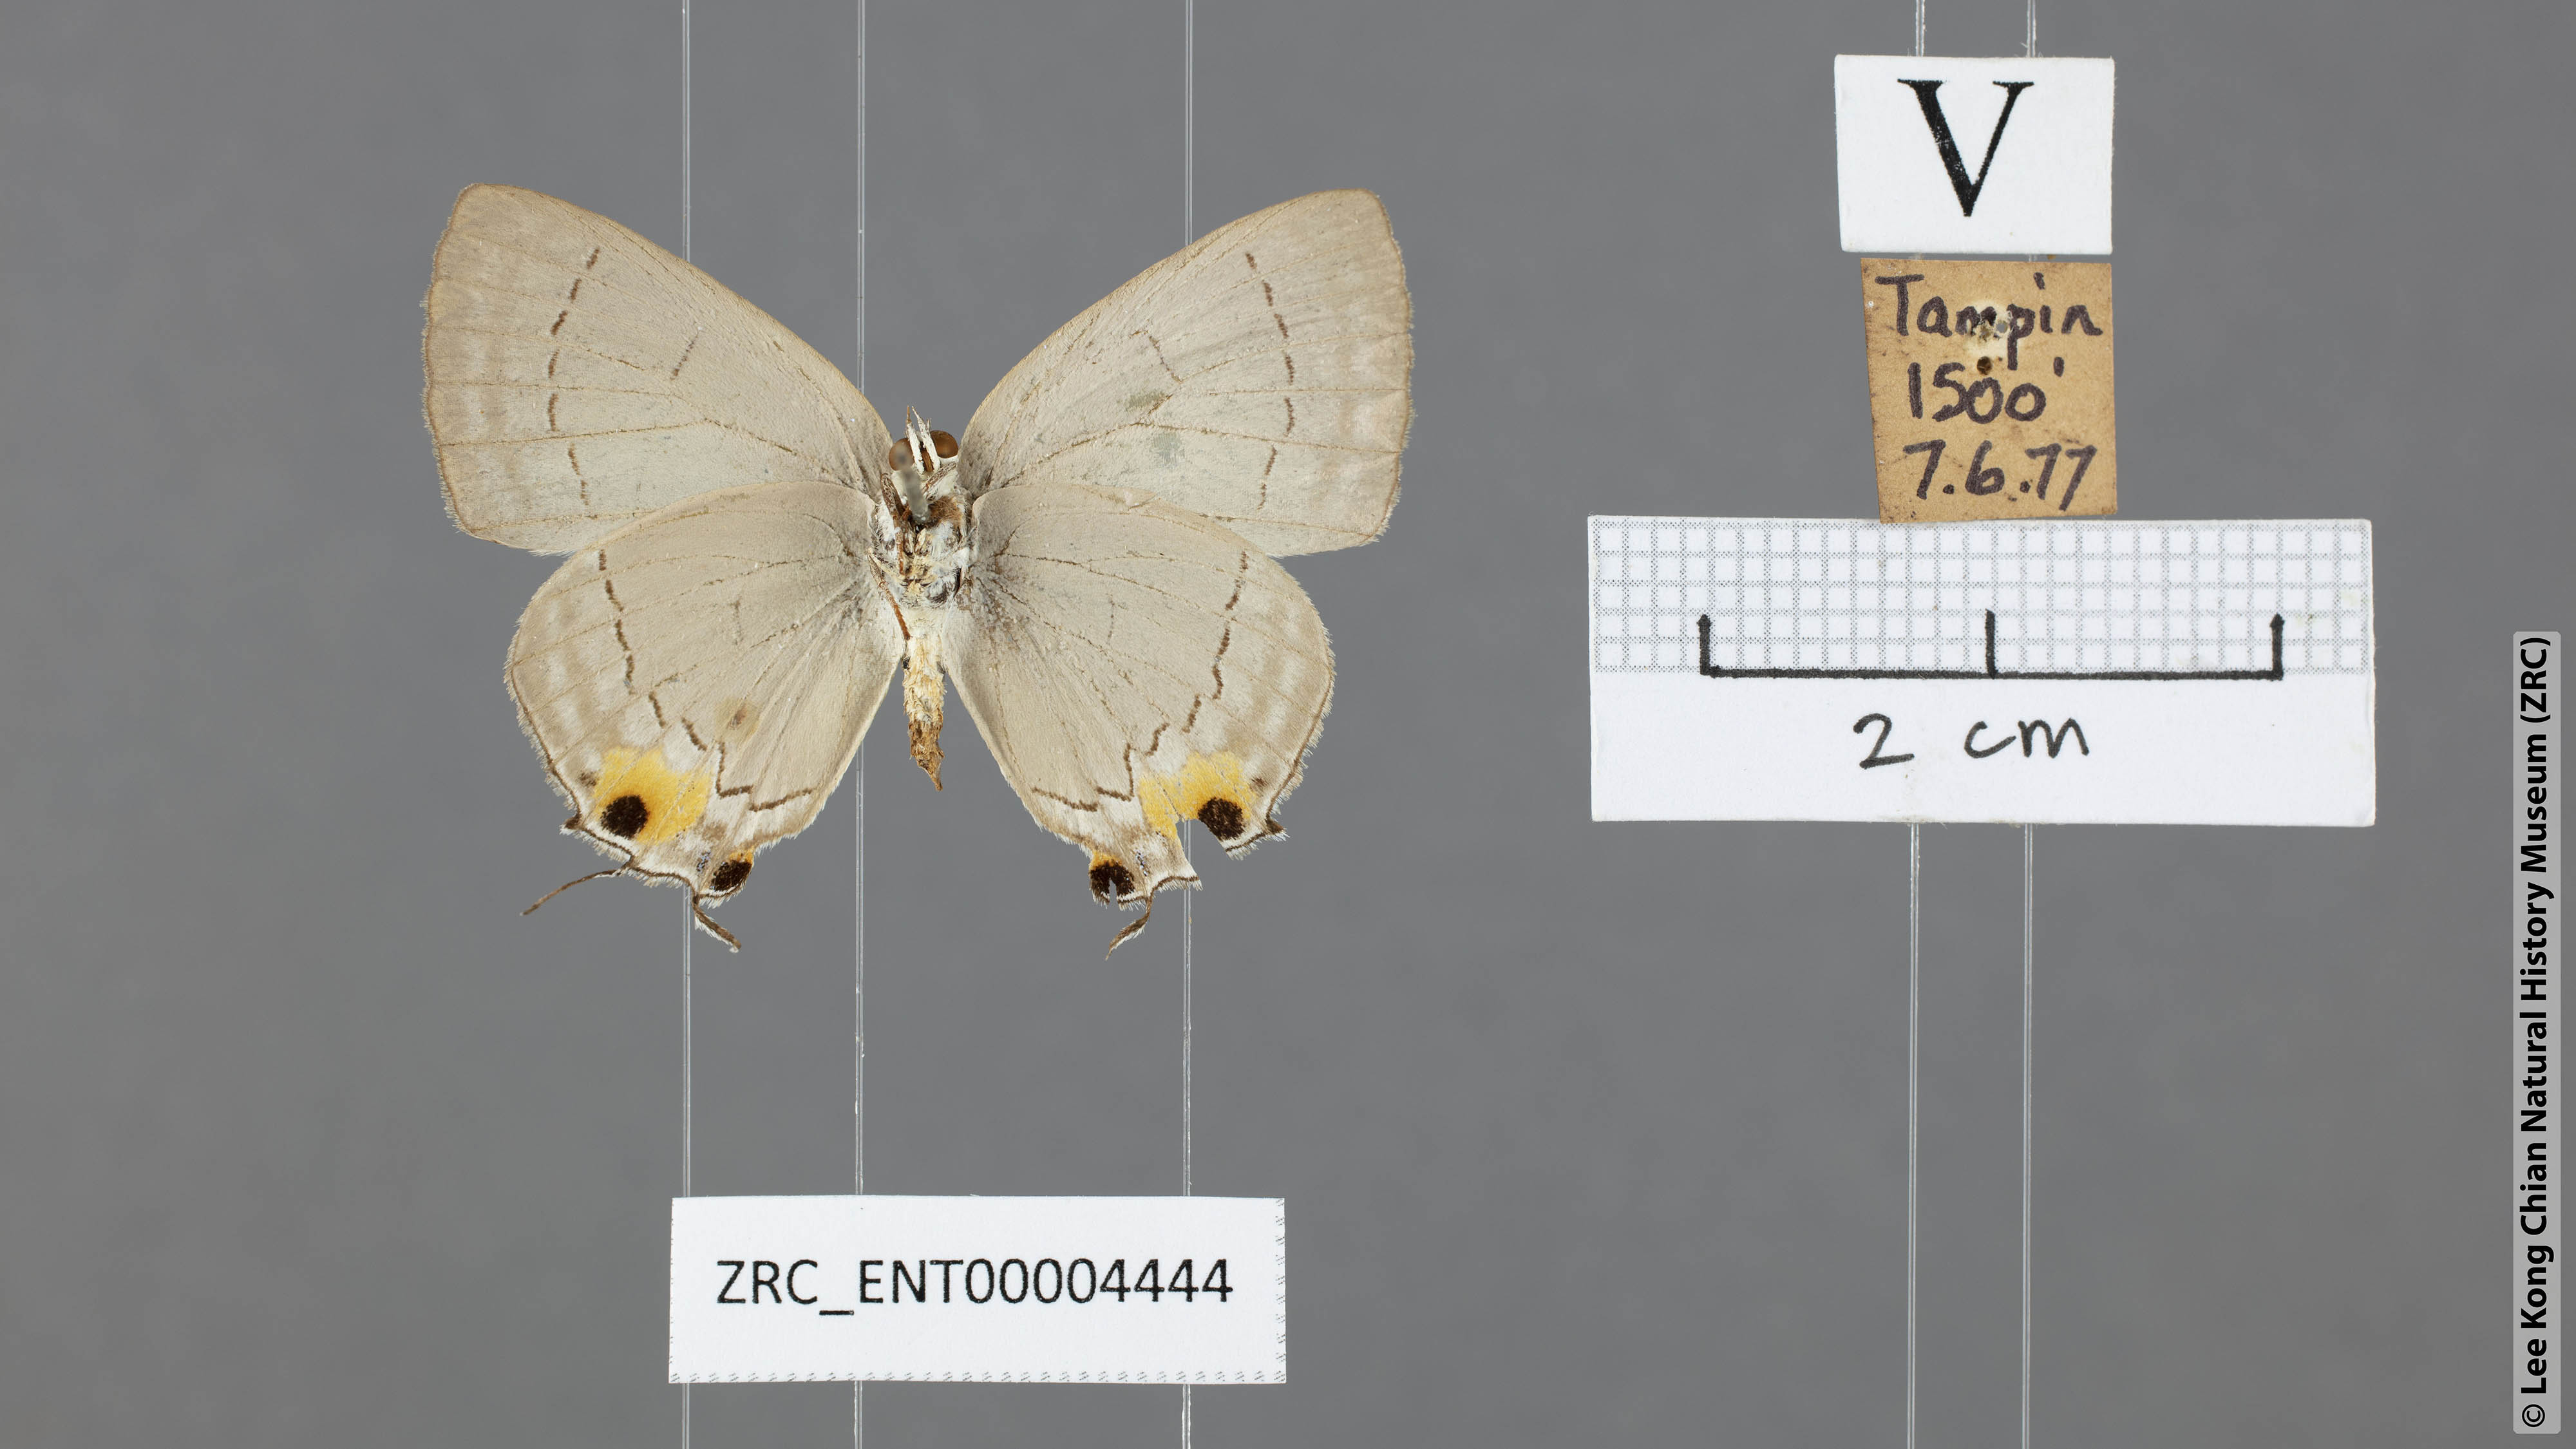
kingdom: Animalia
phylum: Arthropoda
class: Insecta
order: Lepidoptera
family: Lycaenidae
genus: Pratapa
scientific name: Pratapa deva
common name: White royal
